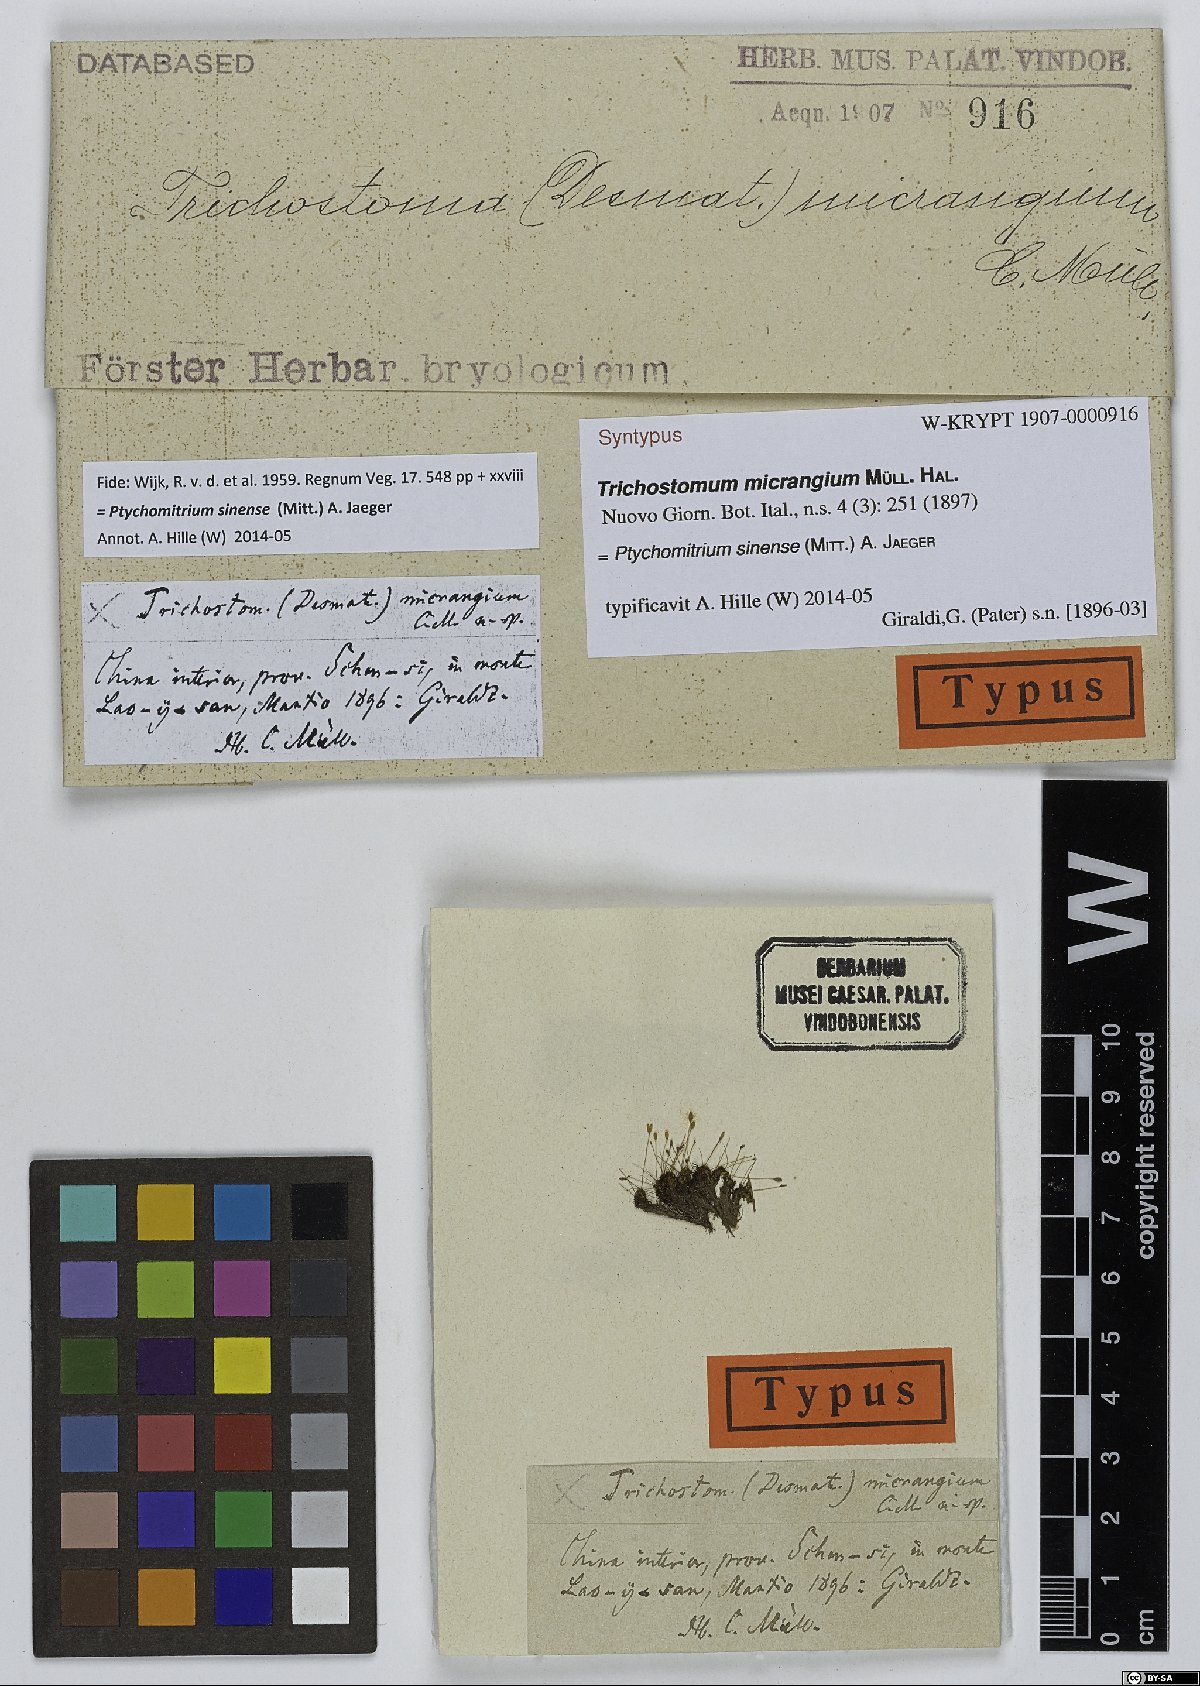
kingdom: Plantae
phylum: Bryophyta
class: Bryopsida
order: Grimmiales
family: Ptychomitriaceae
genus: Ptychomitrium
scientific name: Ptychomitrium sinense
